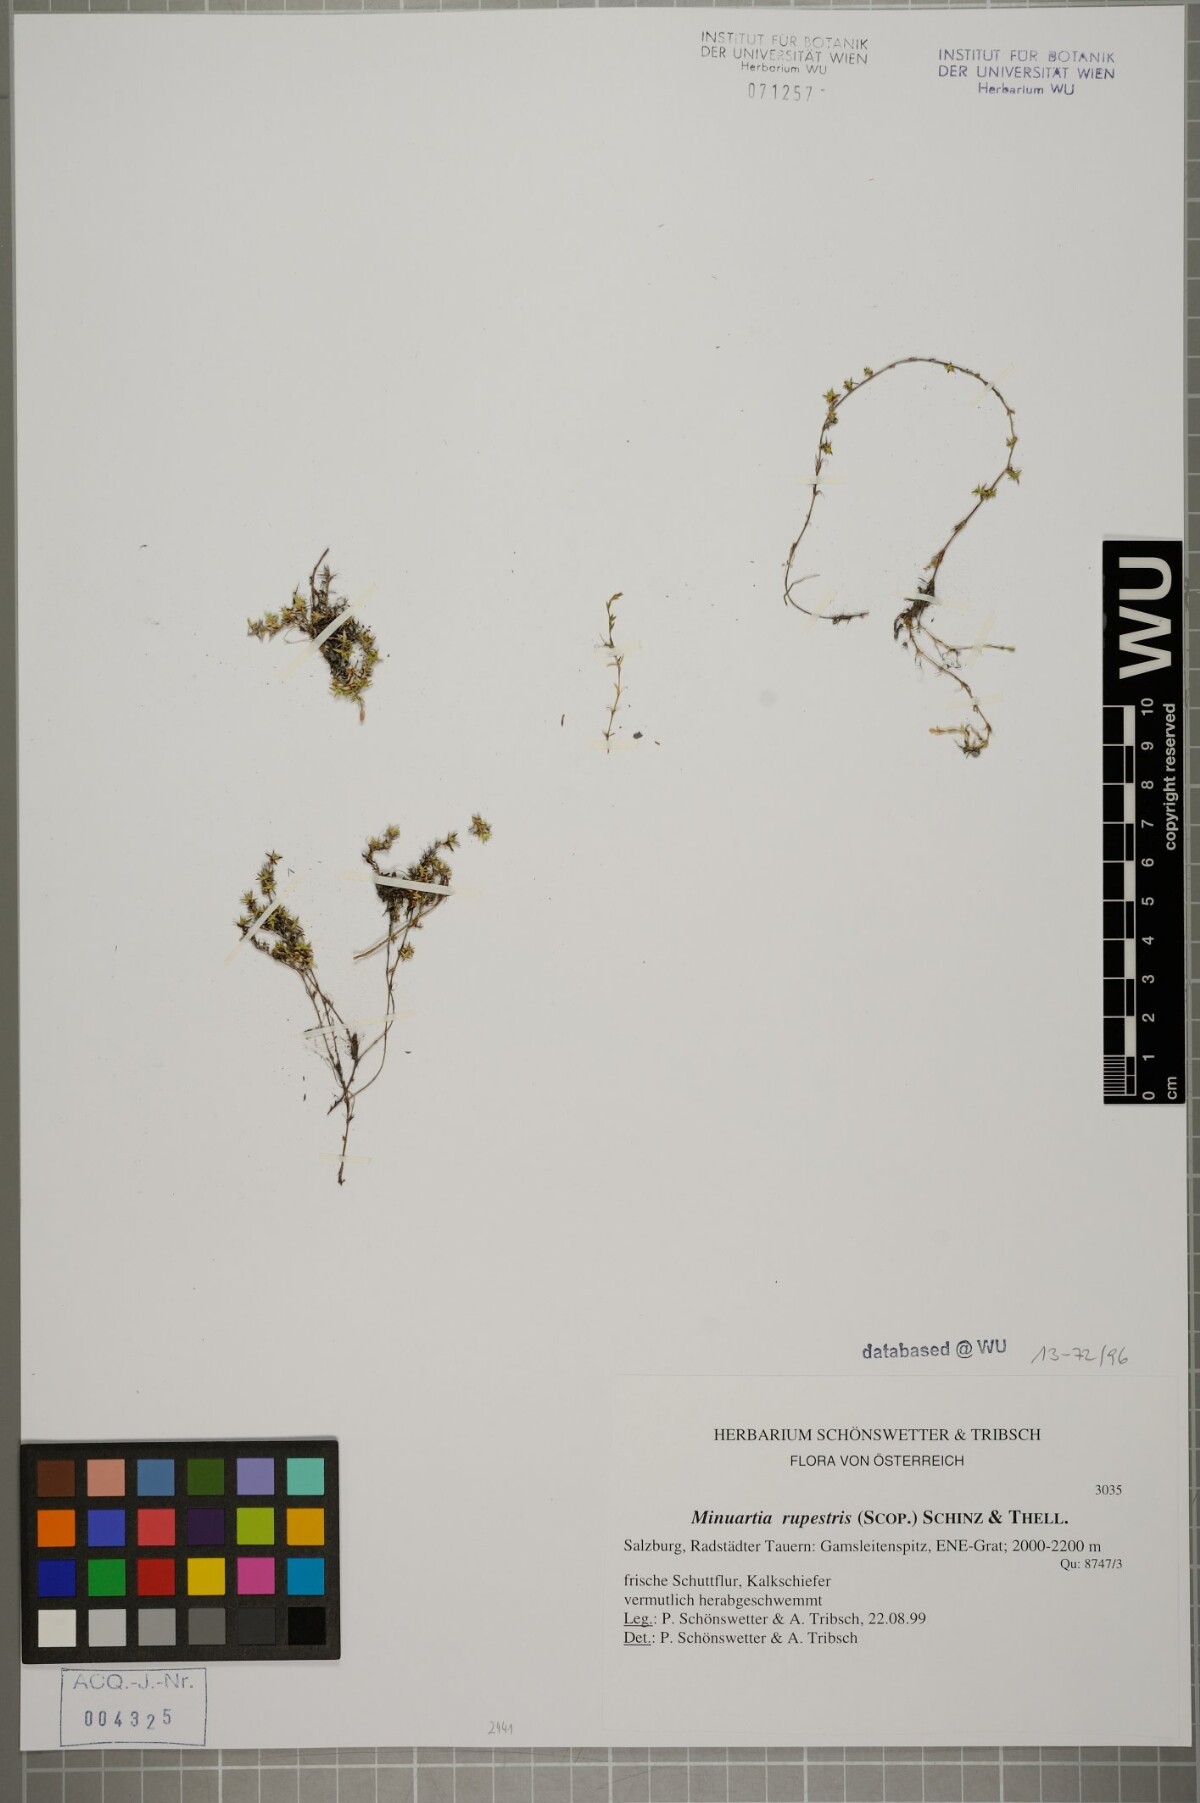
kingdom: Plantae
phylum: Tracheophyta
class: Magnoliopsida
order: Caryophyllales
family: Caryophyllaceae
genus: Facchinia
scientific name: Facchinia rupestris
